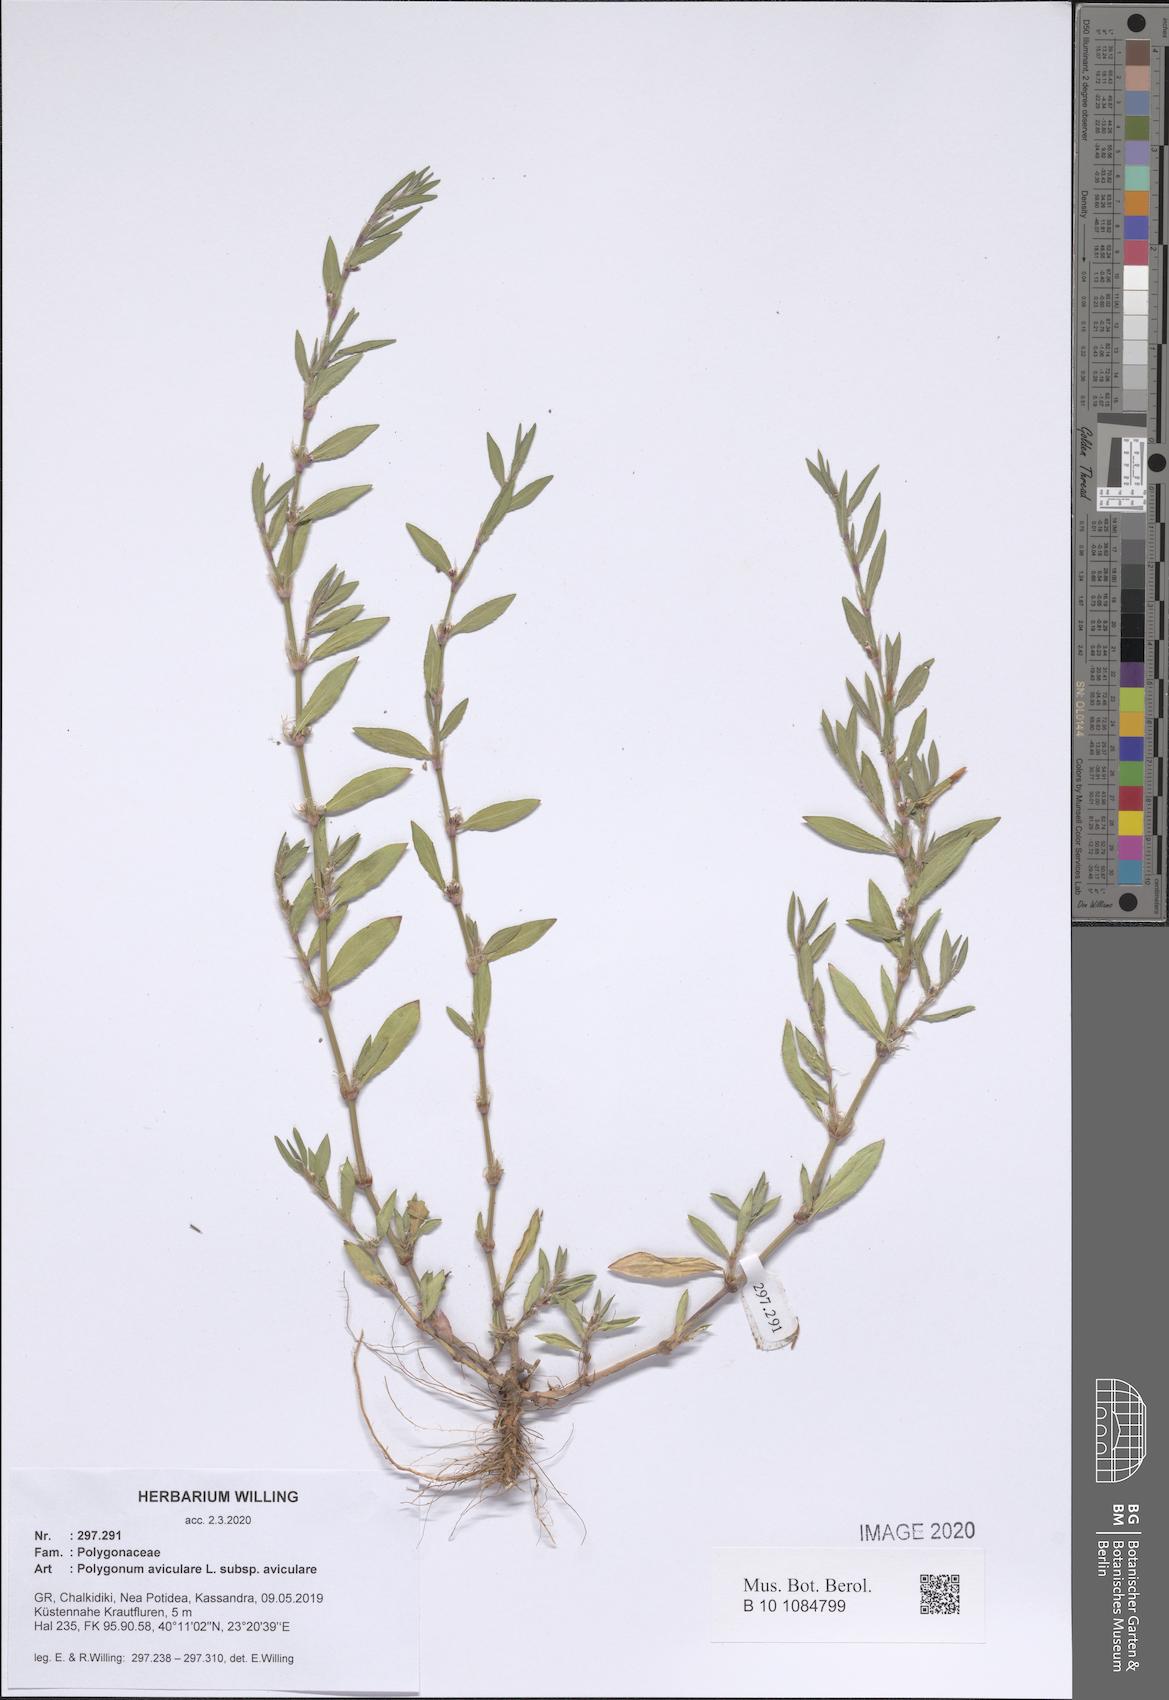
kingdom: Plantae
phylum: Tracheophyta
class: Magnoliopsida
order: Caryophyllales
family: Polygonaceae
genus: Polygonum
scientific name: Polygonum aviculare
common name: Prostrate knotweed
